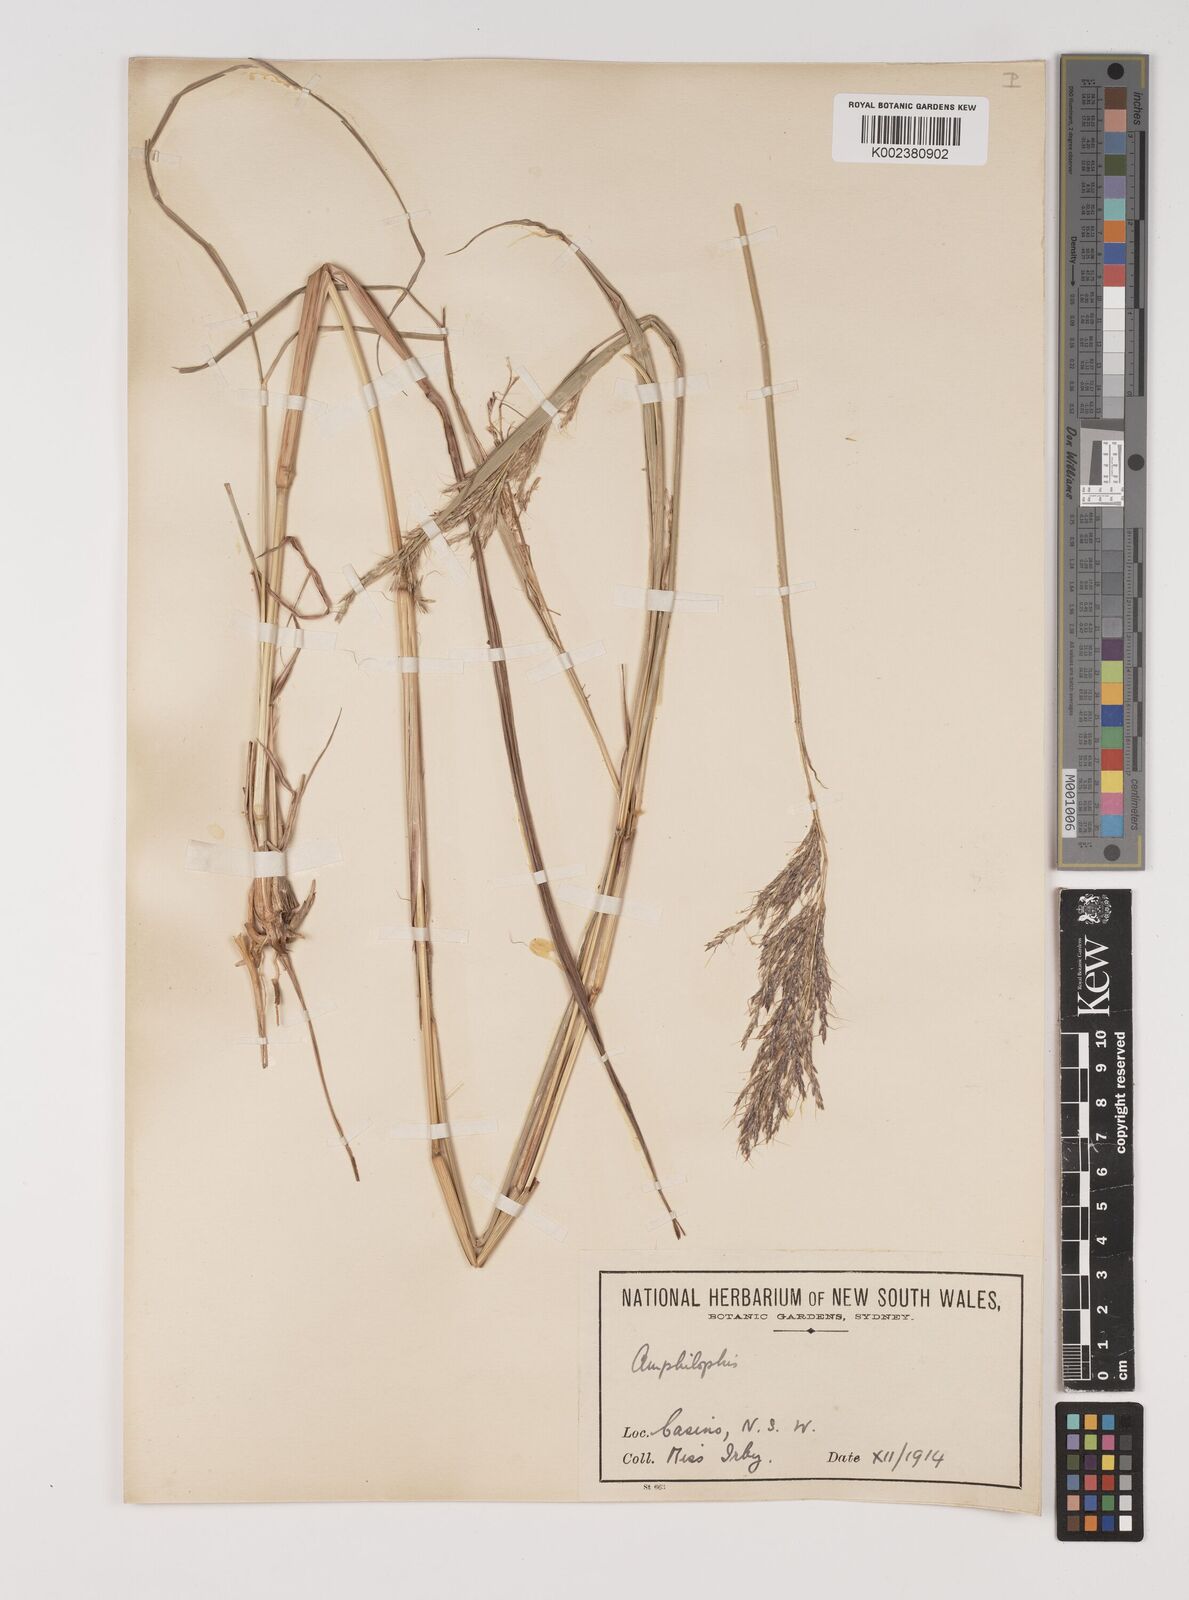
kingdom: Plantae
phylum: Tracheophyta
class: Liliopsida
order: Poales
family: Poaceae
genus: Bothriochloa
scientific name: Bothriochloa bladhii
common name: Caucasian bluestem
